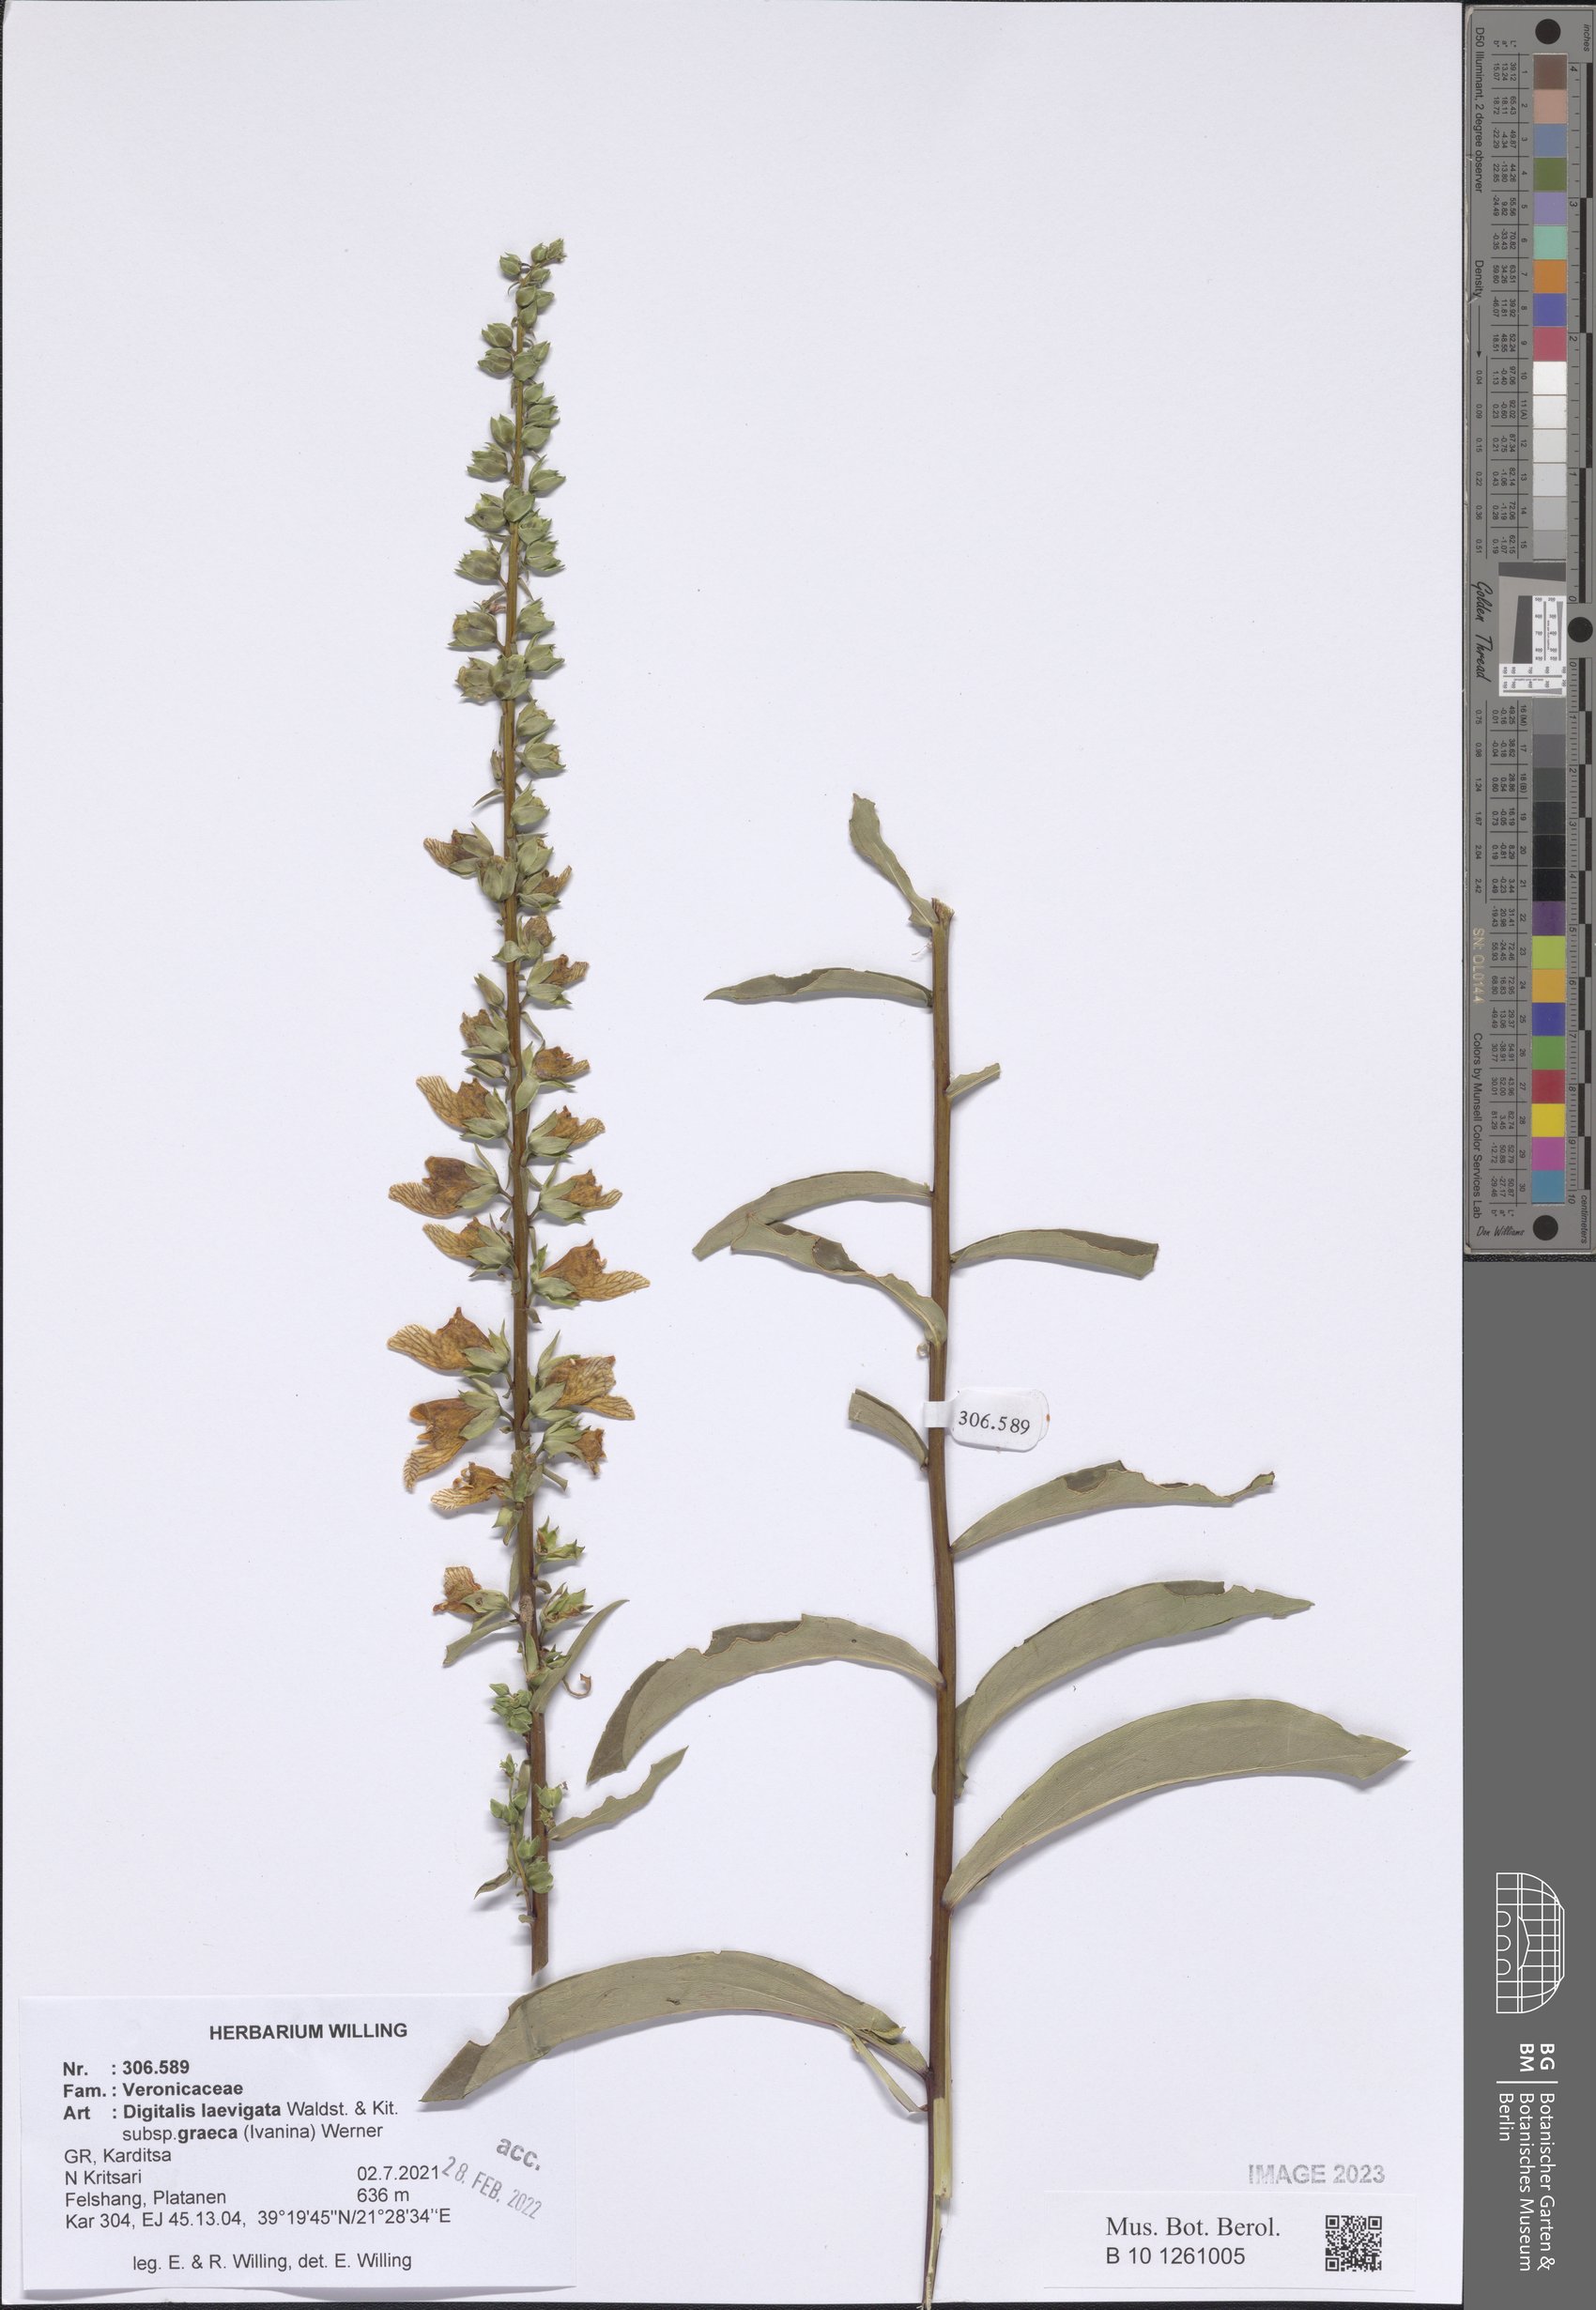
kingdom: Plantae
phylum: Tracheophyta
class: Magnoliopsida
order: Lamiales
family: Plantaginaceae
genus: Digitalis
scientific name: Digitalis laevigata
